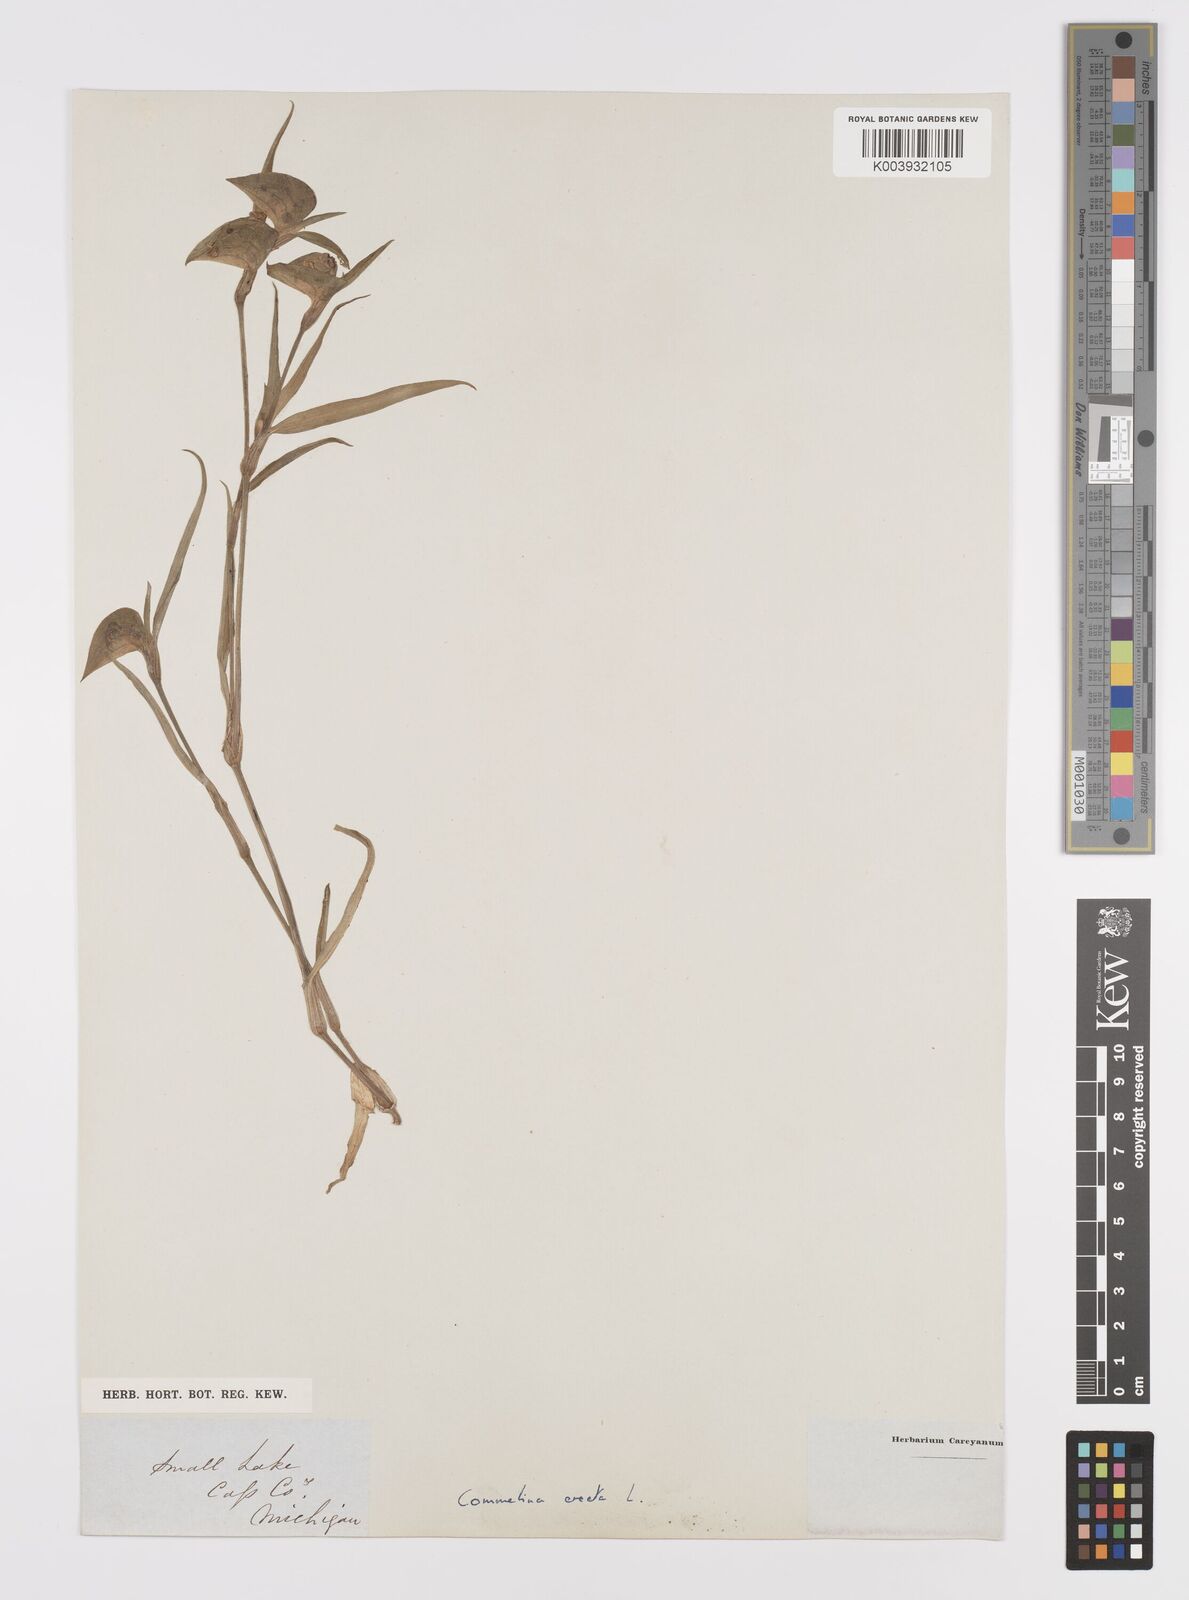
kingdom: Plantae
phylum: Tracheophyta
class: Liliopsida
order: Commelinales
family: Commelinaceae
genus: Commelina
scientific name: Commelina erecta
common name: Blousel blommetjie
